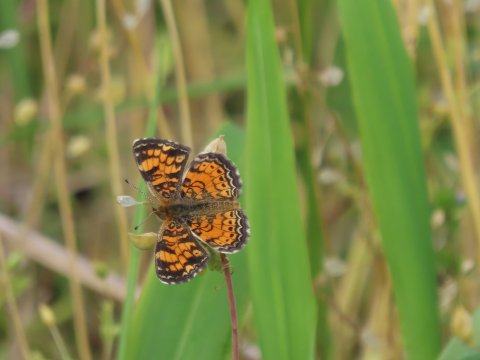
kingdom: Animalia
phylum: Arthropoda
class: Insecta
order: Lepidoptera
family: Nymphalidae
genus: Phyciodes
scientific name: Phyciodes tharos
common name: Pearl Crescent
